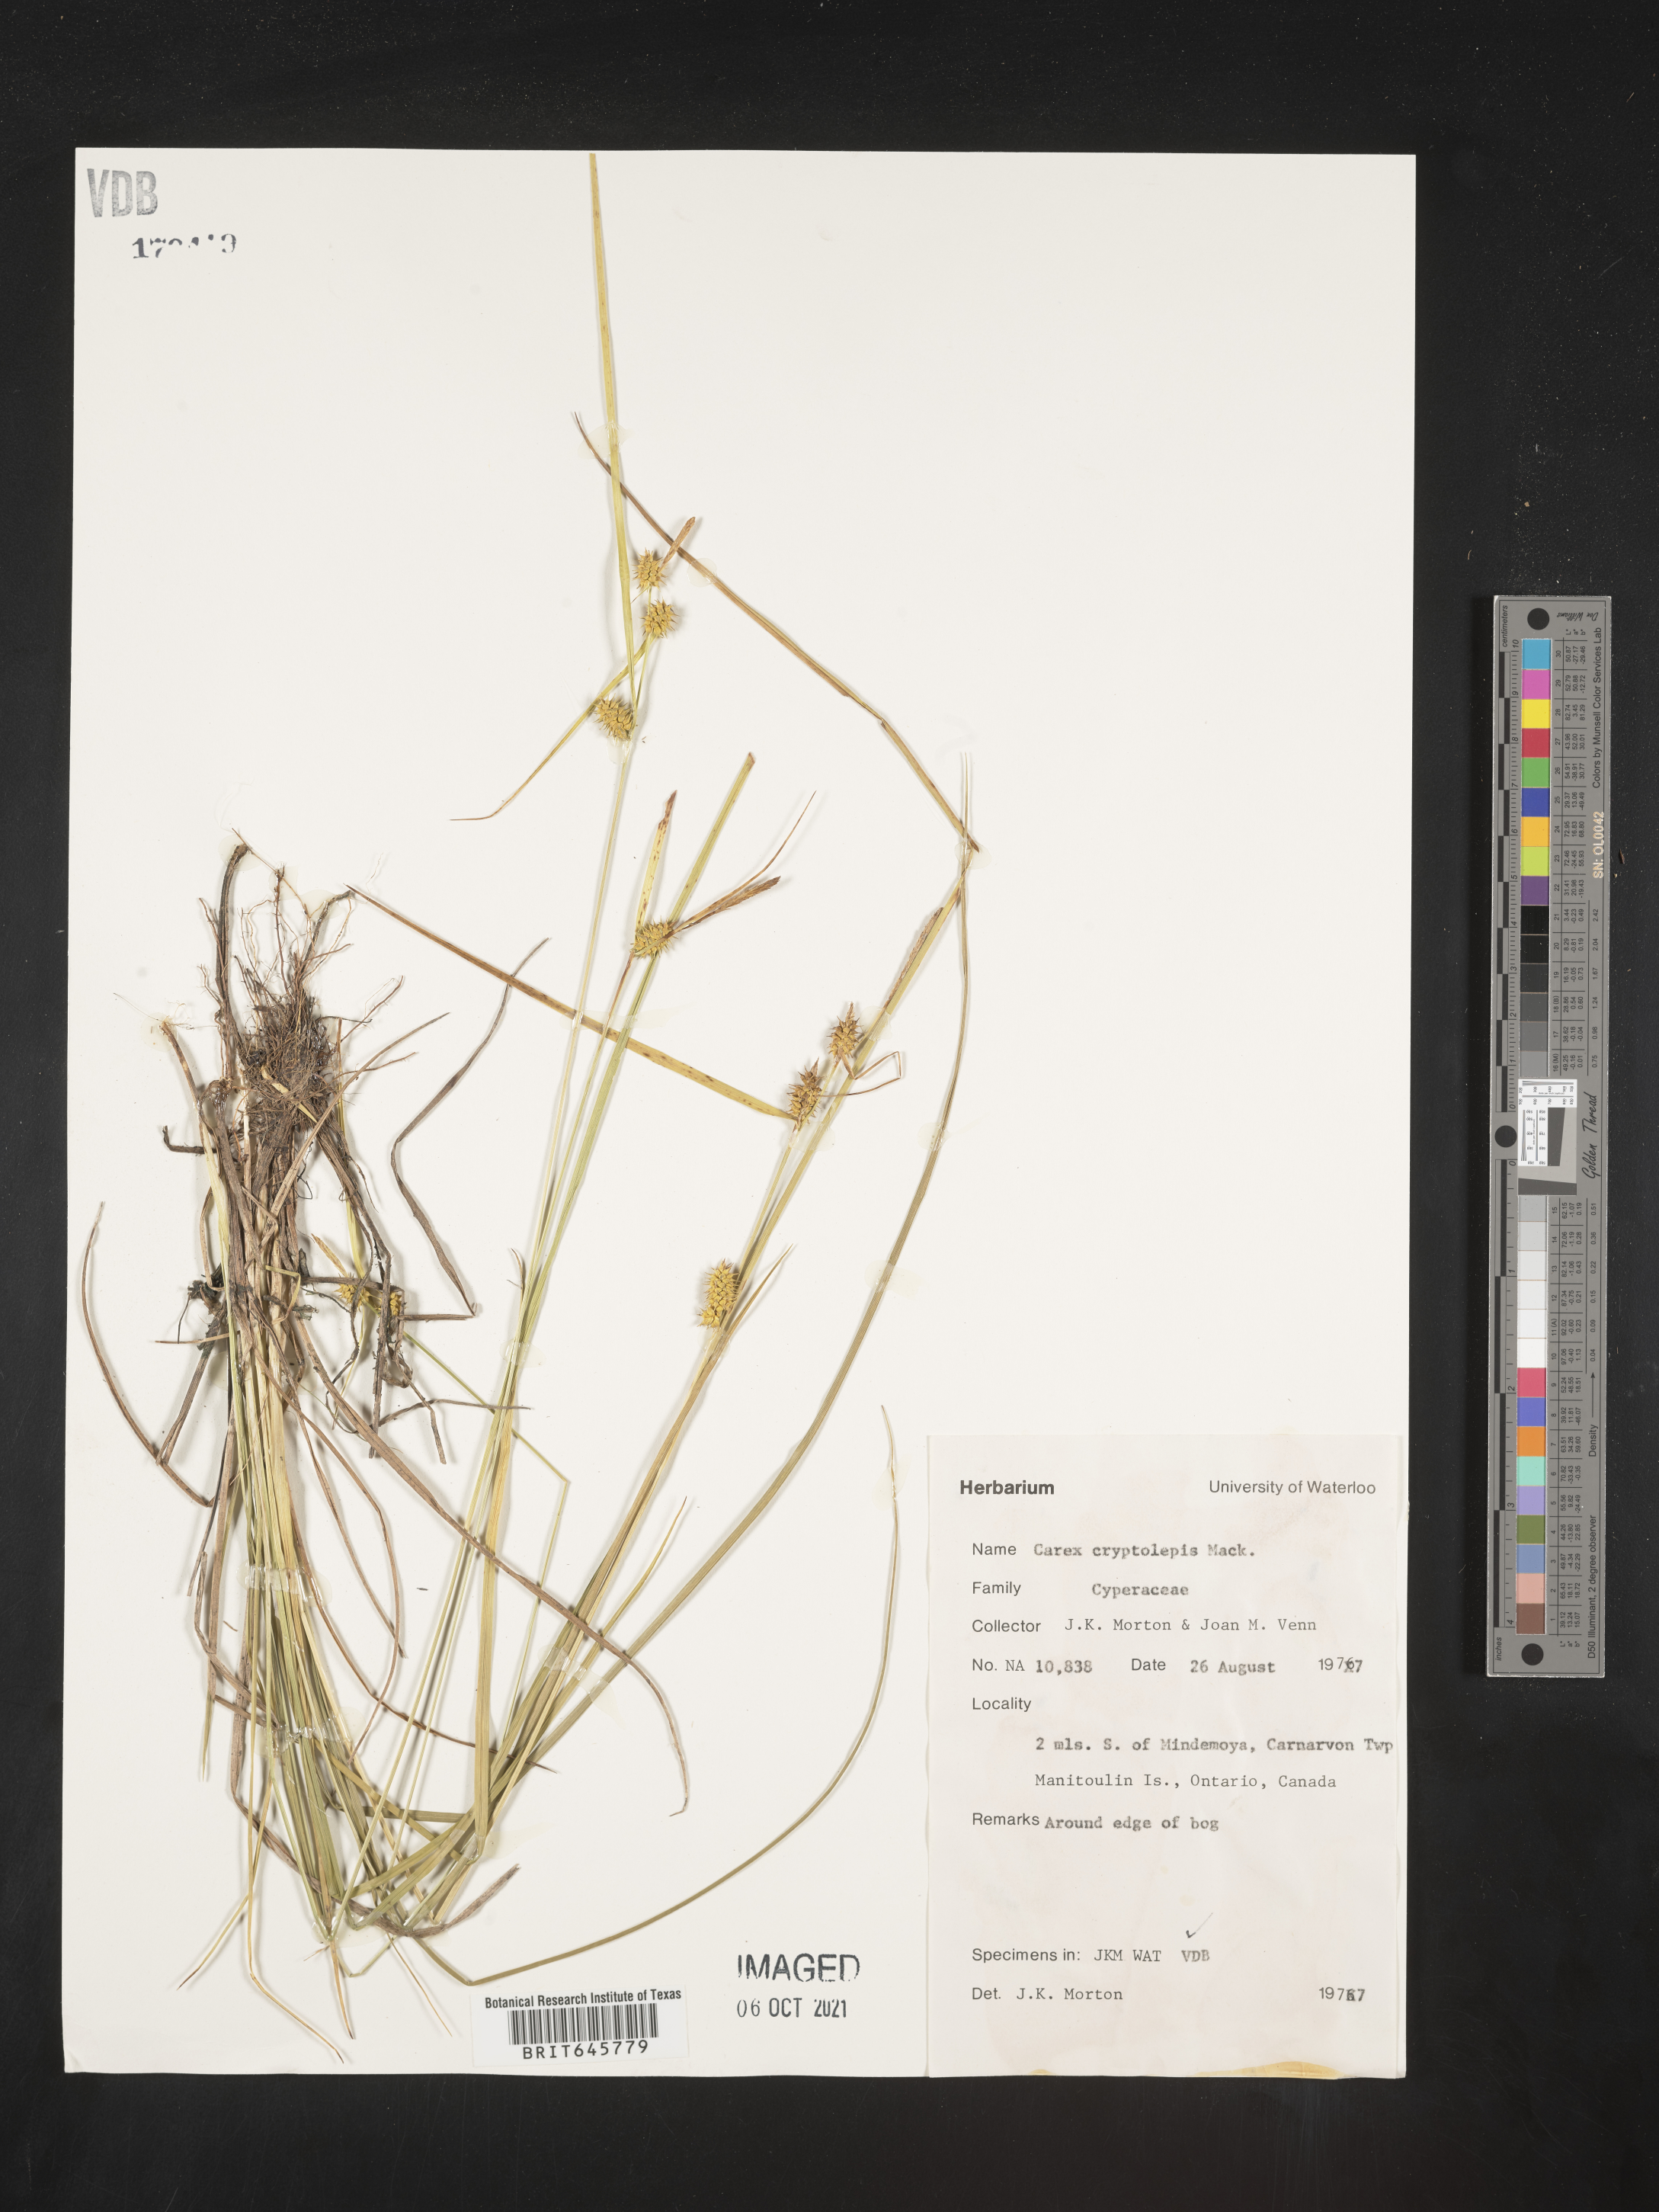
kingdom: Plantae
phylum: Tracheophyta
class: Liliopsida
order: Poales
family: Cyperaceae
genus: Carex
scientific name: Carex cryptolepis
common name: Northeastern sedge
